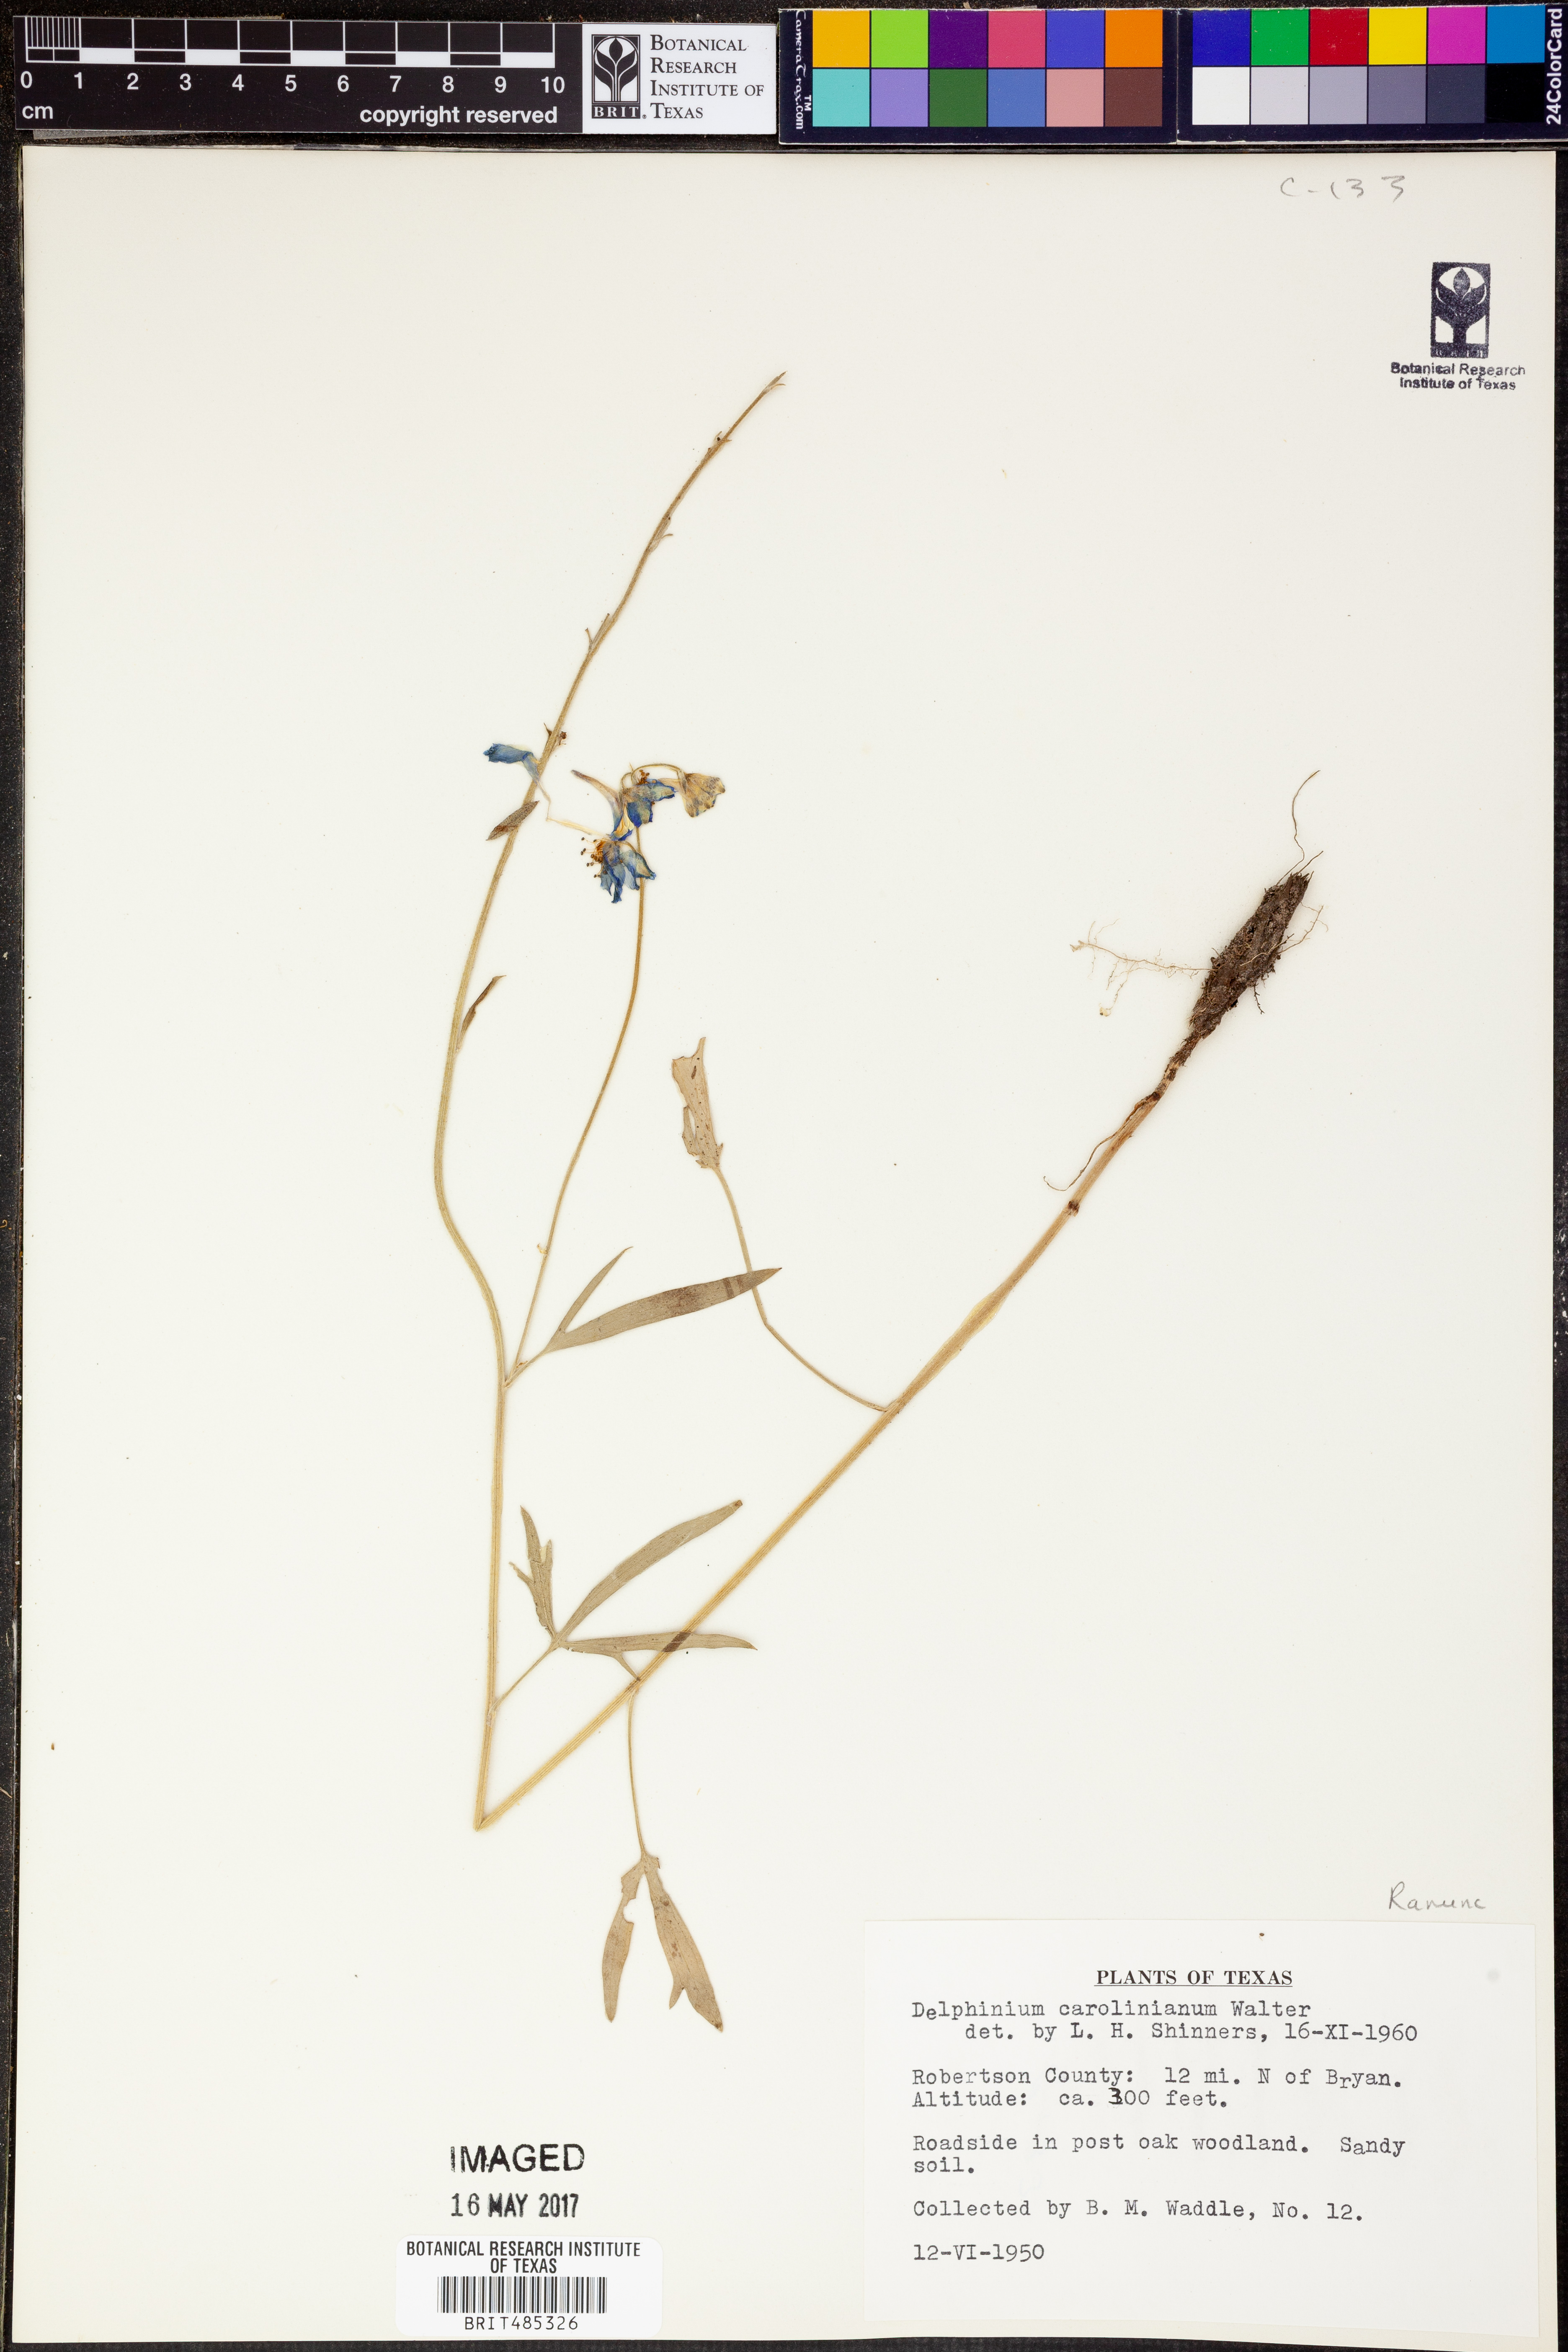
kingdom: Plantae
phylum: Tracheophyta
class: Magnoliopsida
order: Ranunculales
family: Ranunculaceae
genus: Delphinium
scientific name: Delphinium carolinianum
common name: Carolina larkspur
